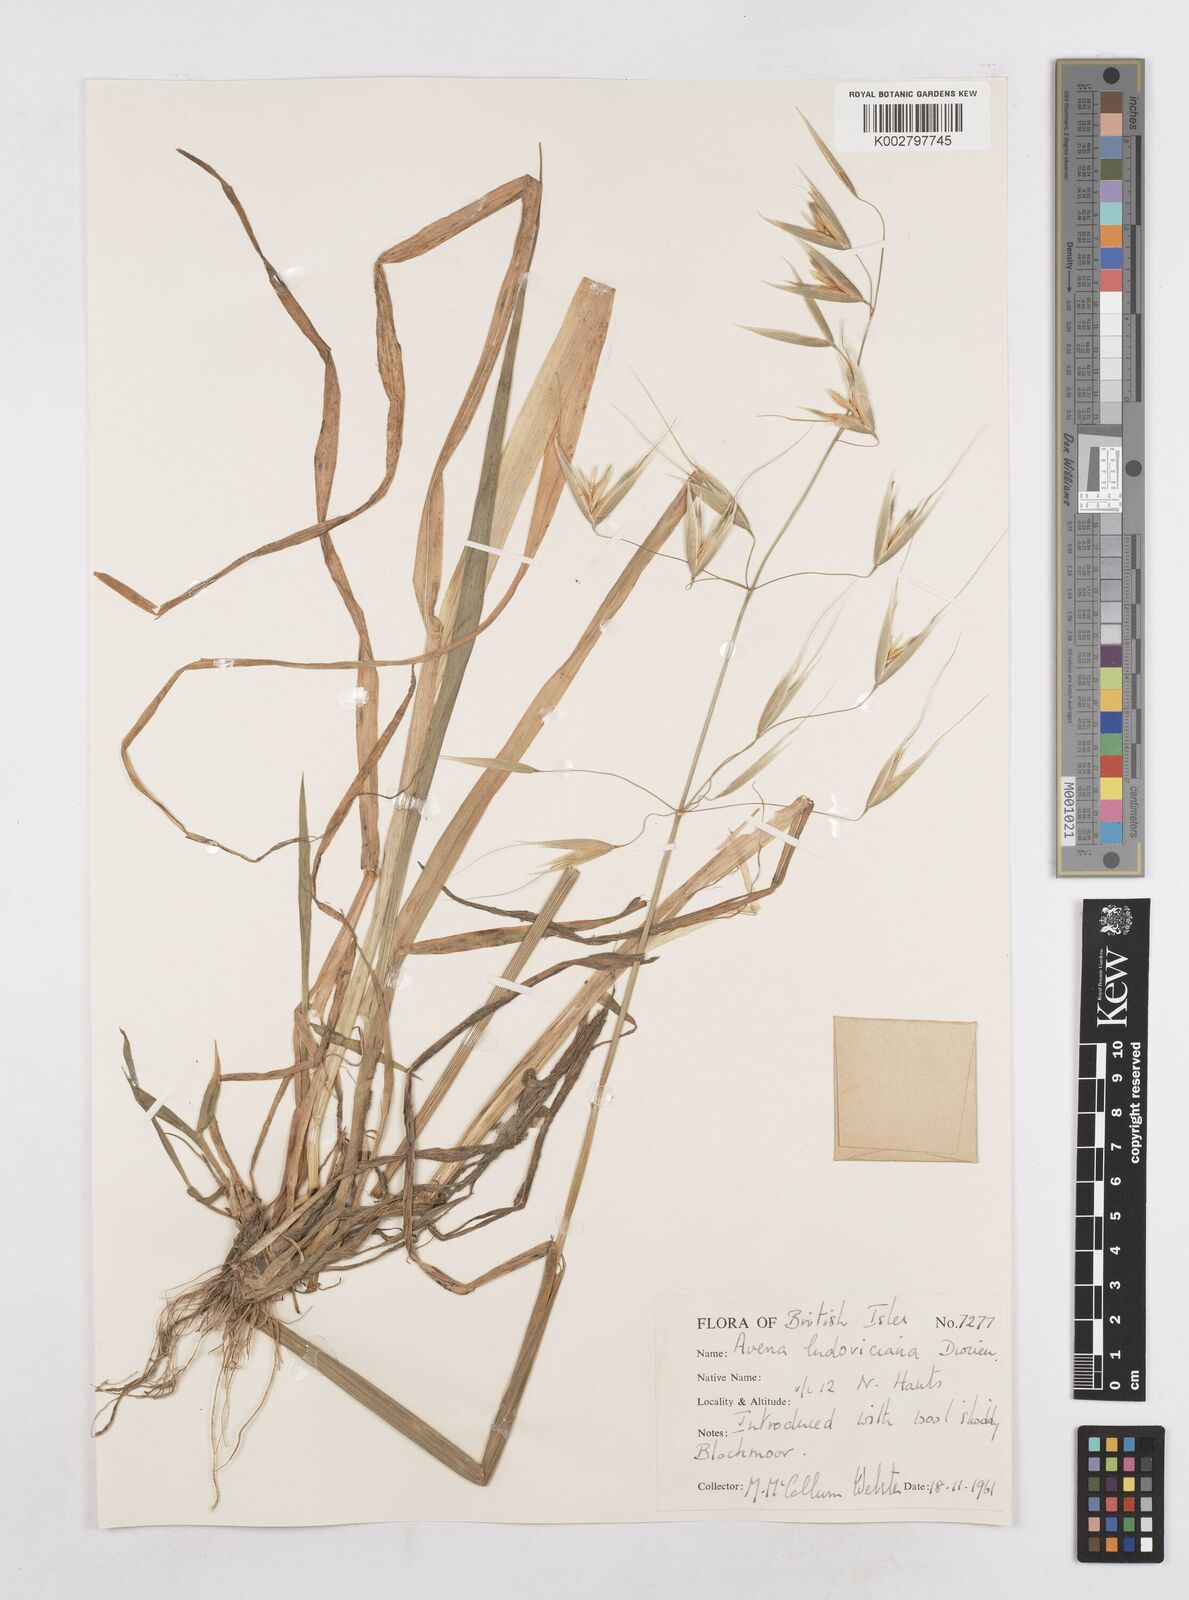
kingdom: Plantae
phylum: Tracheophyta
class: Liliopsida
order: Poales
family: Poaceae
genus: Avena
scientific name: Avena sterilis
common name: Animated oat
